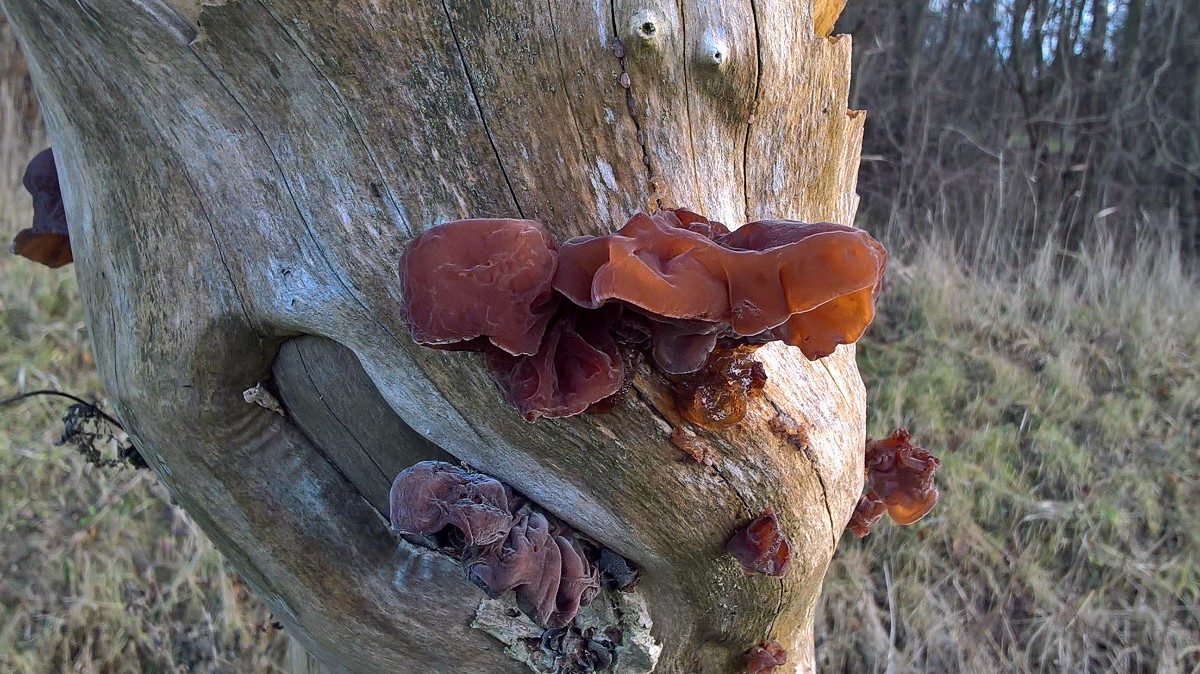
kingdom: Fungi
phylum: Basidiomycota
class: Agaricomycetes
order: Auriculariales
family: Auriculariaceae
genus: Auricularia
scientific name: Auricularia auricula-judae
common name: almindelig judasøre
